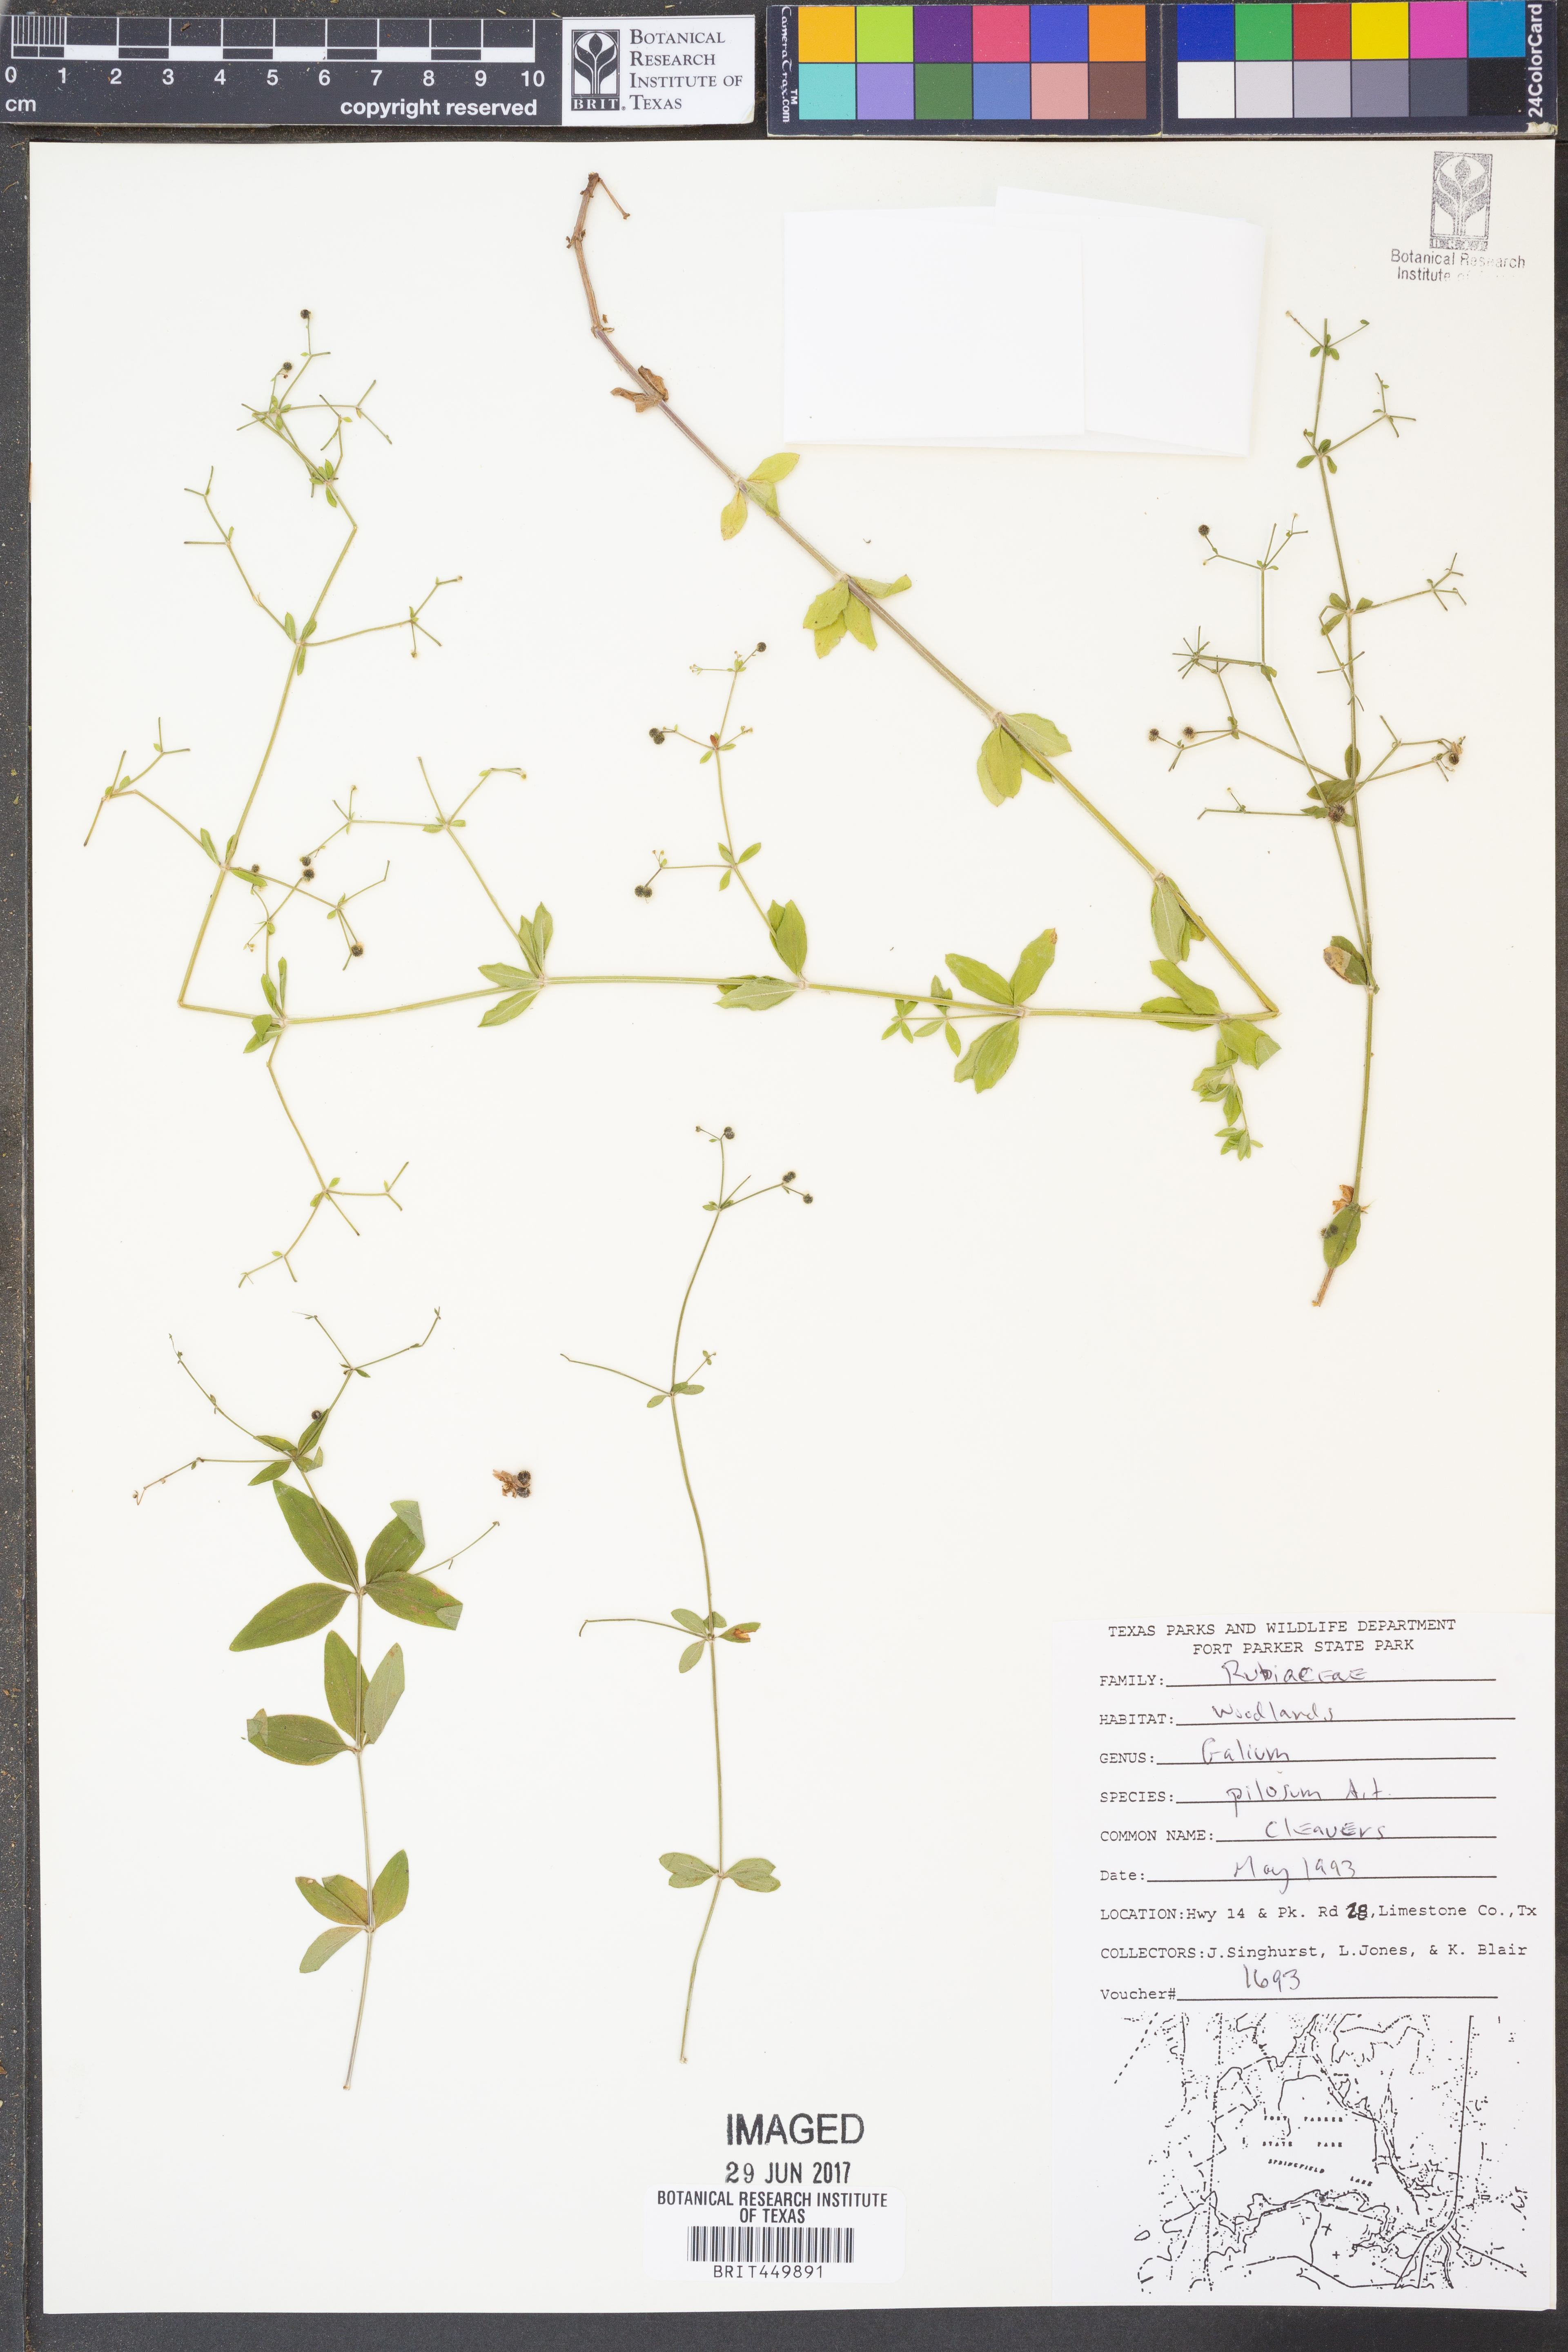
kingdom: Plantae
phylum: Tracheophyta
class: Magnoliopsida
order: Gentianales
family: Rubiaceae
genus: Galium
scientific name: Galium pilosum
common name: Hairy bedstraw
